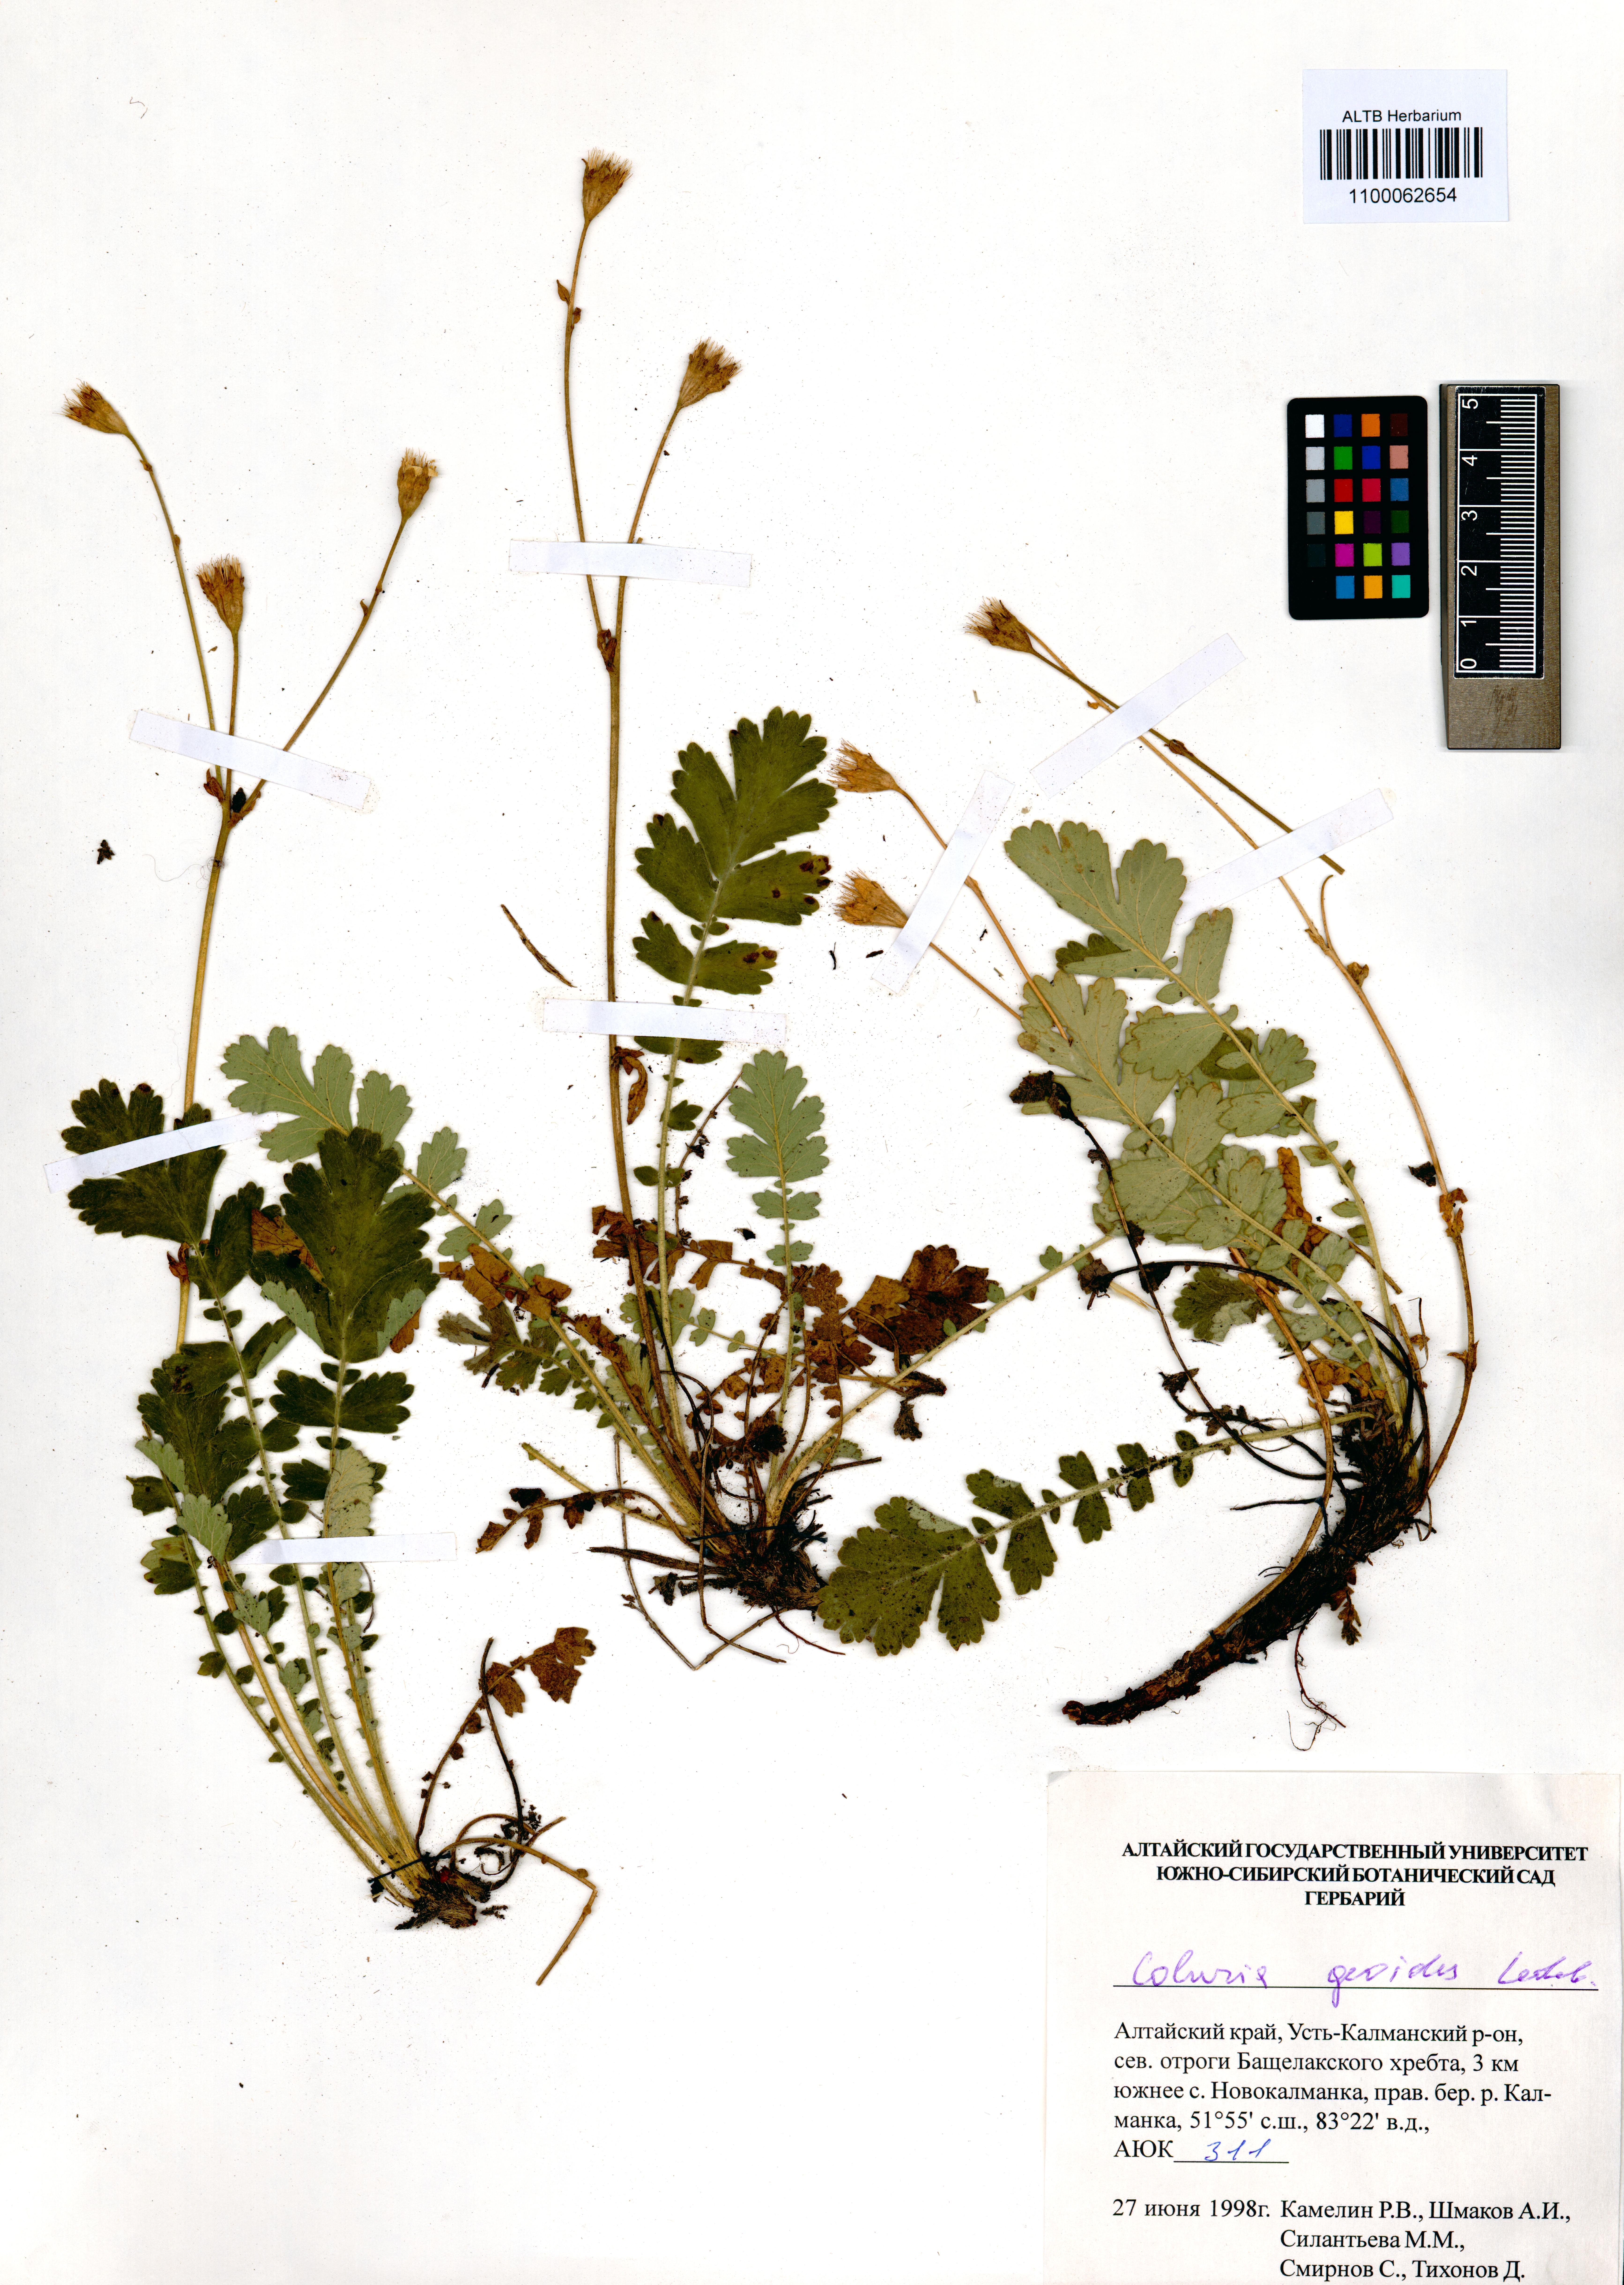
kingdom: Plantae
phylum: Tracheophyta
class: Magnoliopsida
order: Rosales
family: Rosaceae
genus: Geum
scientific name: Geum geoides
